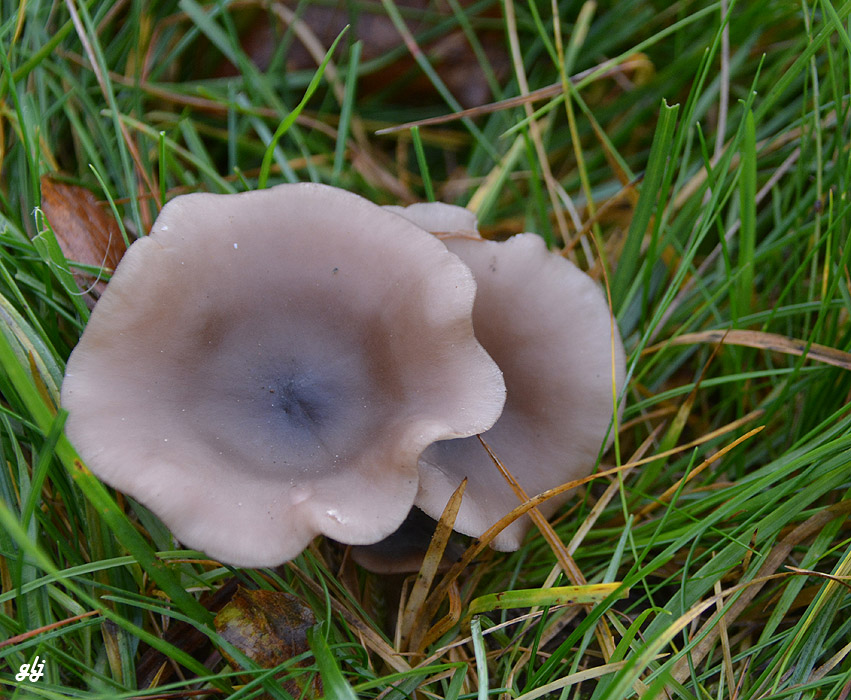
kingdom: Fungi
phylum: Basidiomycota
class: Agaricomycetes
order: Agaricales
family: Tricholomataceae
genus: Lepista
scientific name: Lepista sordida
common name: spinkel hekseringshat
